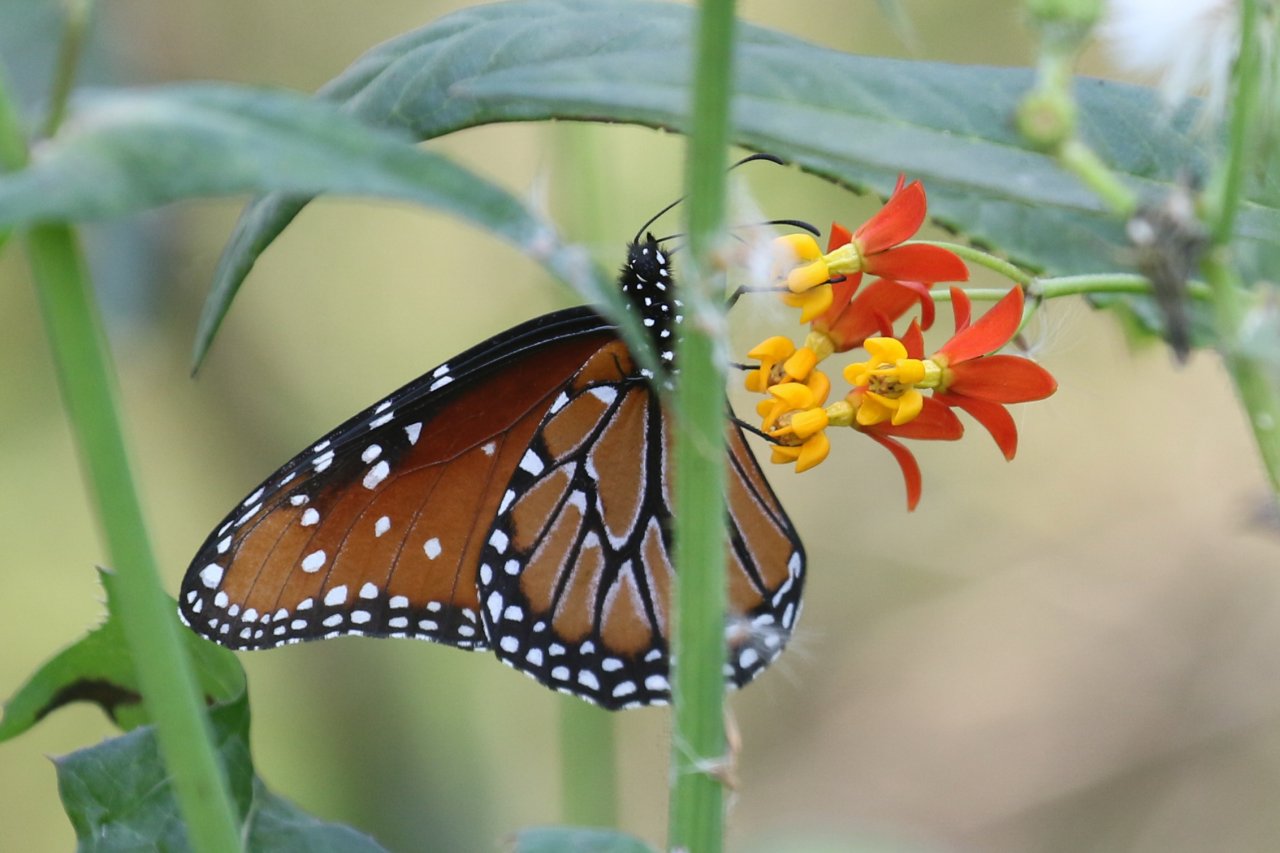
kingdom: Animalia
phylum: Arthropoda
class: Insecta
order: Lepidoptera
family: Nymphalidae
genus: Danaus
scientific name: Danaus gilippus
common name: Queen
